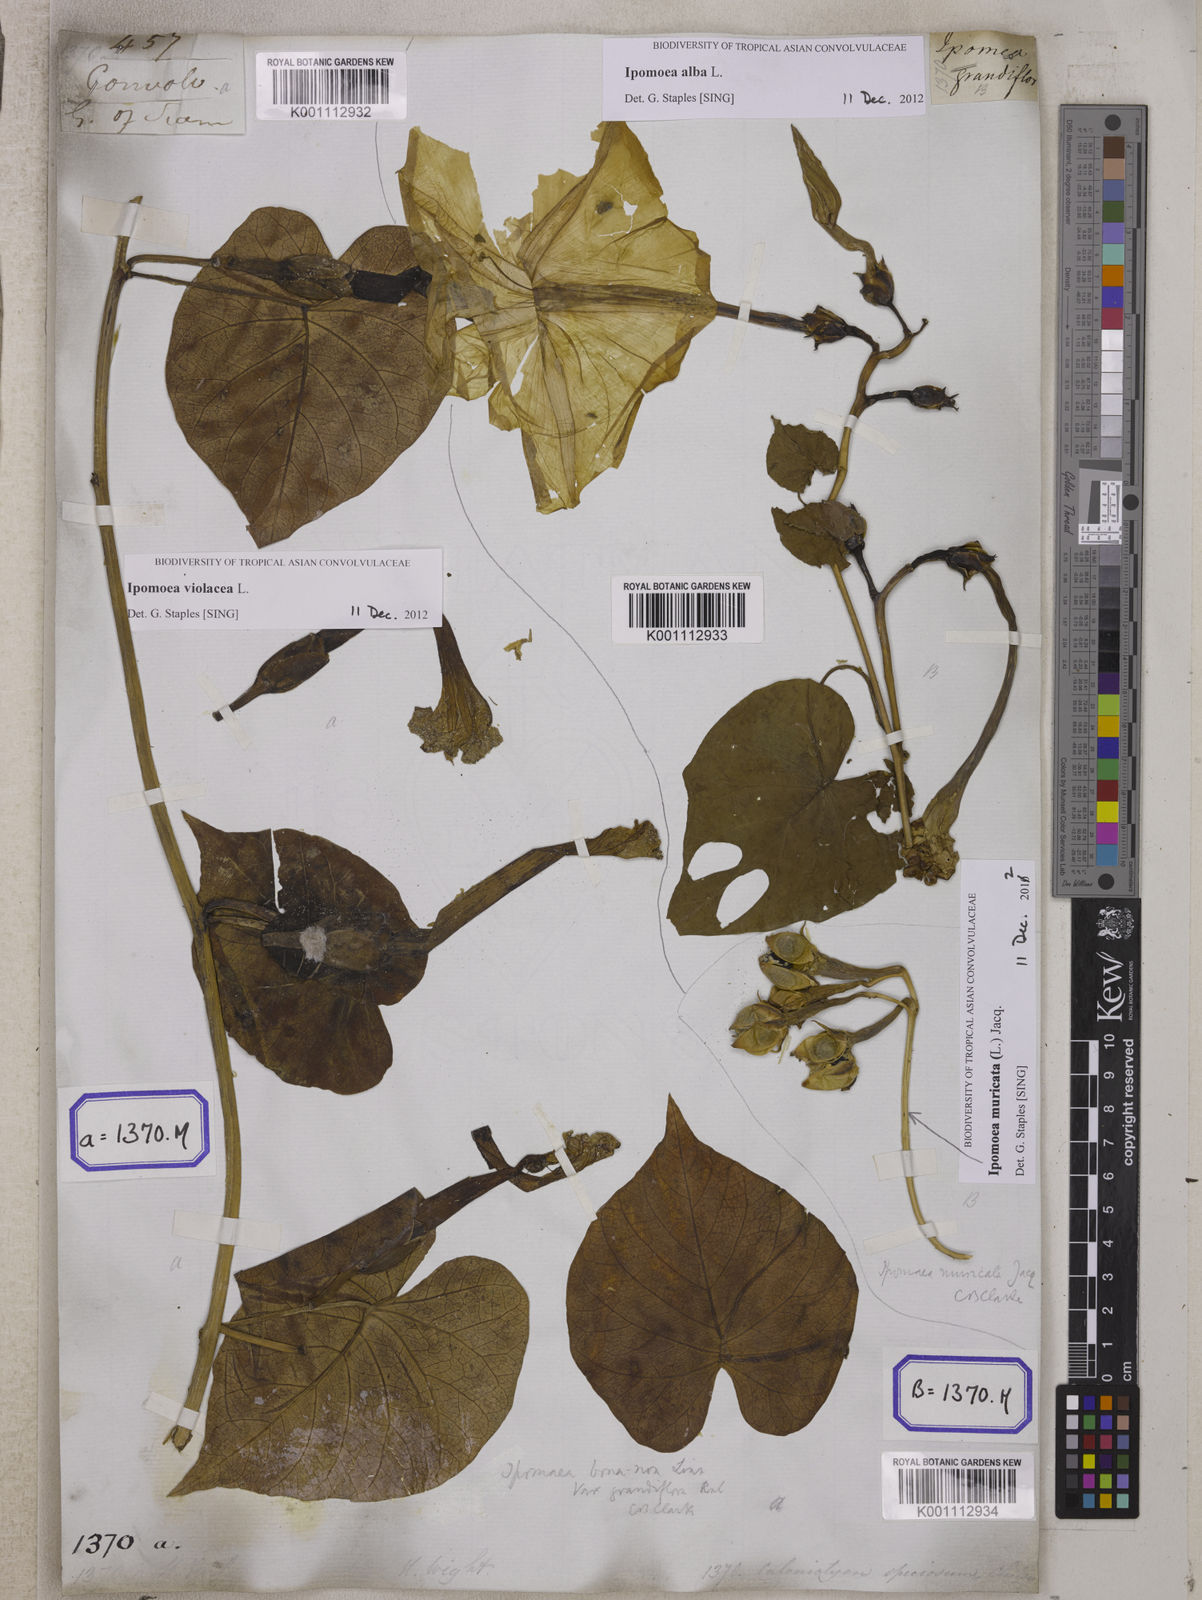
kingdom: Plantae
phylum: Tracheophyta
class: Magnoliopsida
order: Solanales
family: Convolvulaceae
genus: Convolvulus
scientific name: Convolvulus
